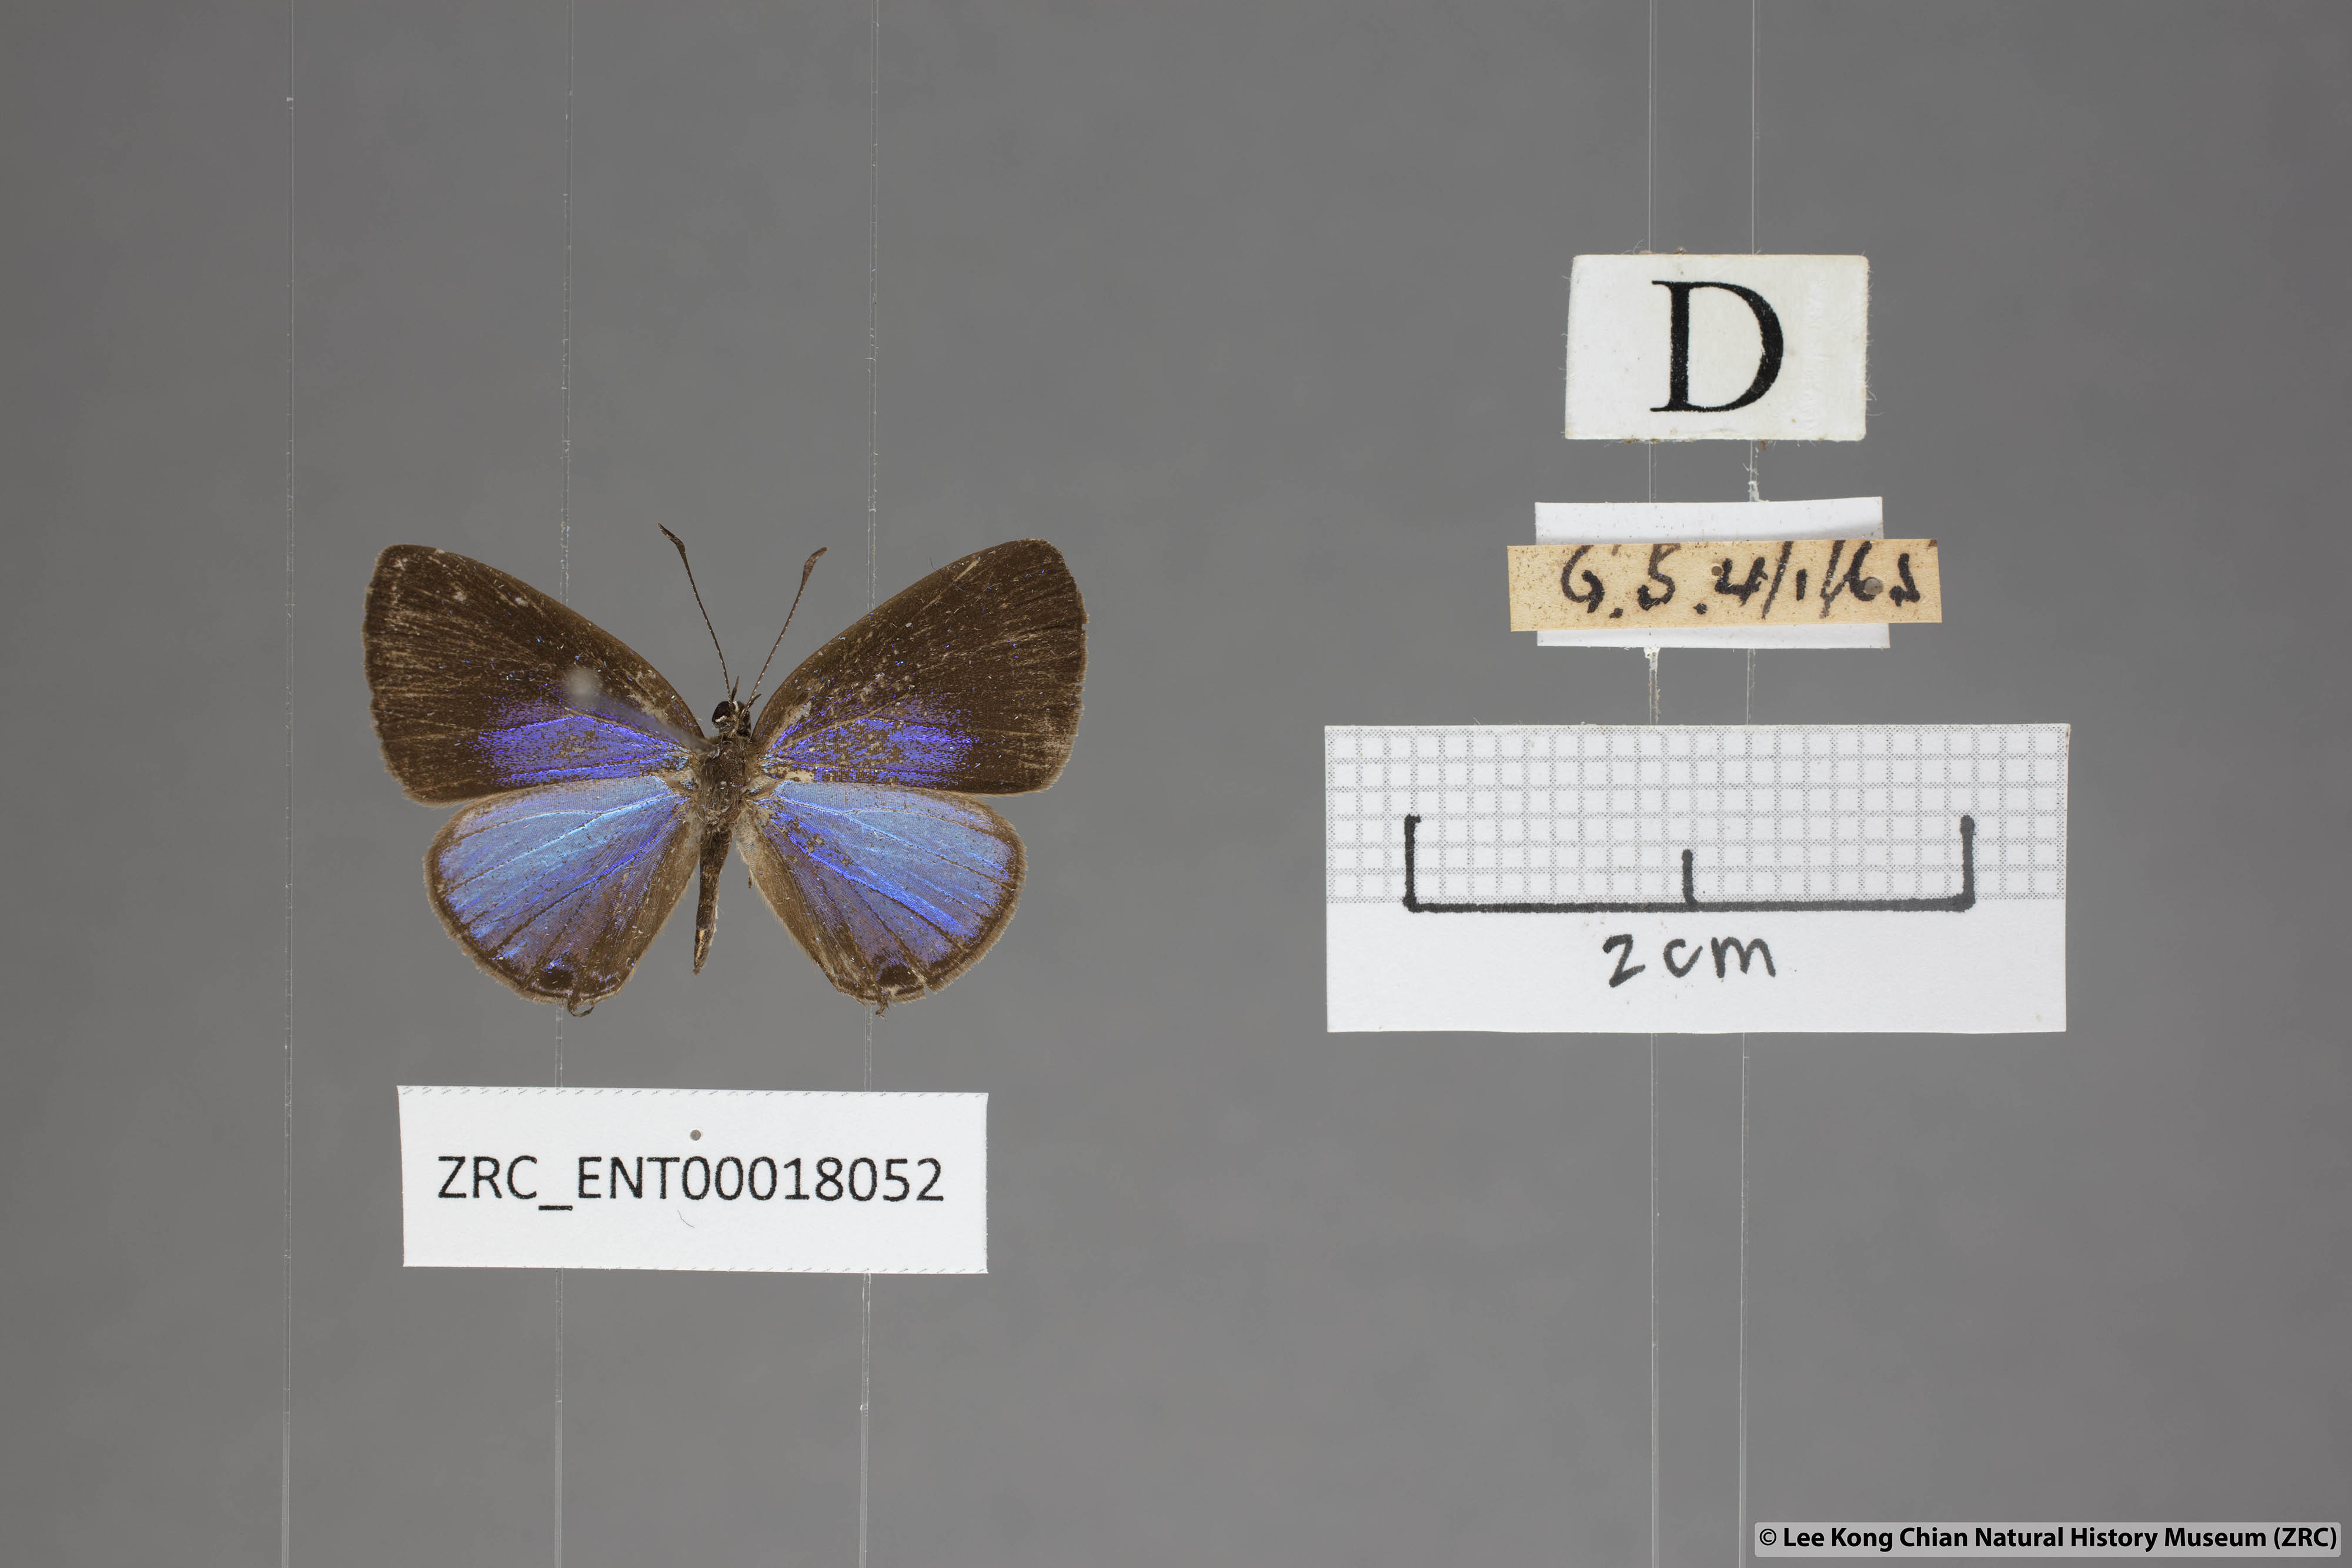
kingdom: Animalia
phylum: Arthropoda
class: Insecta
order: Lepidoptera
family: Lycaenidae
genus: Jamides
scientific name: Jamides bochus
